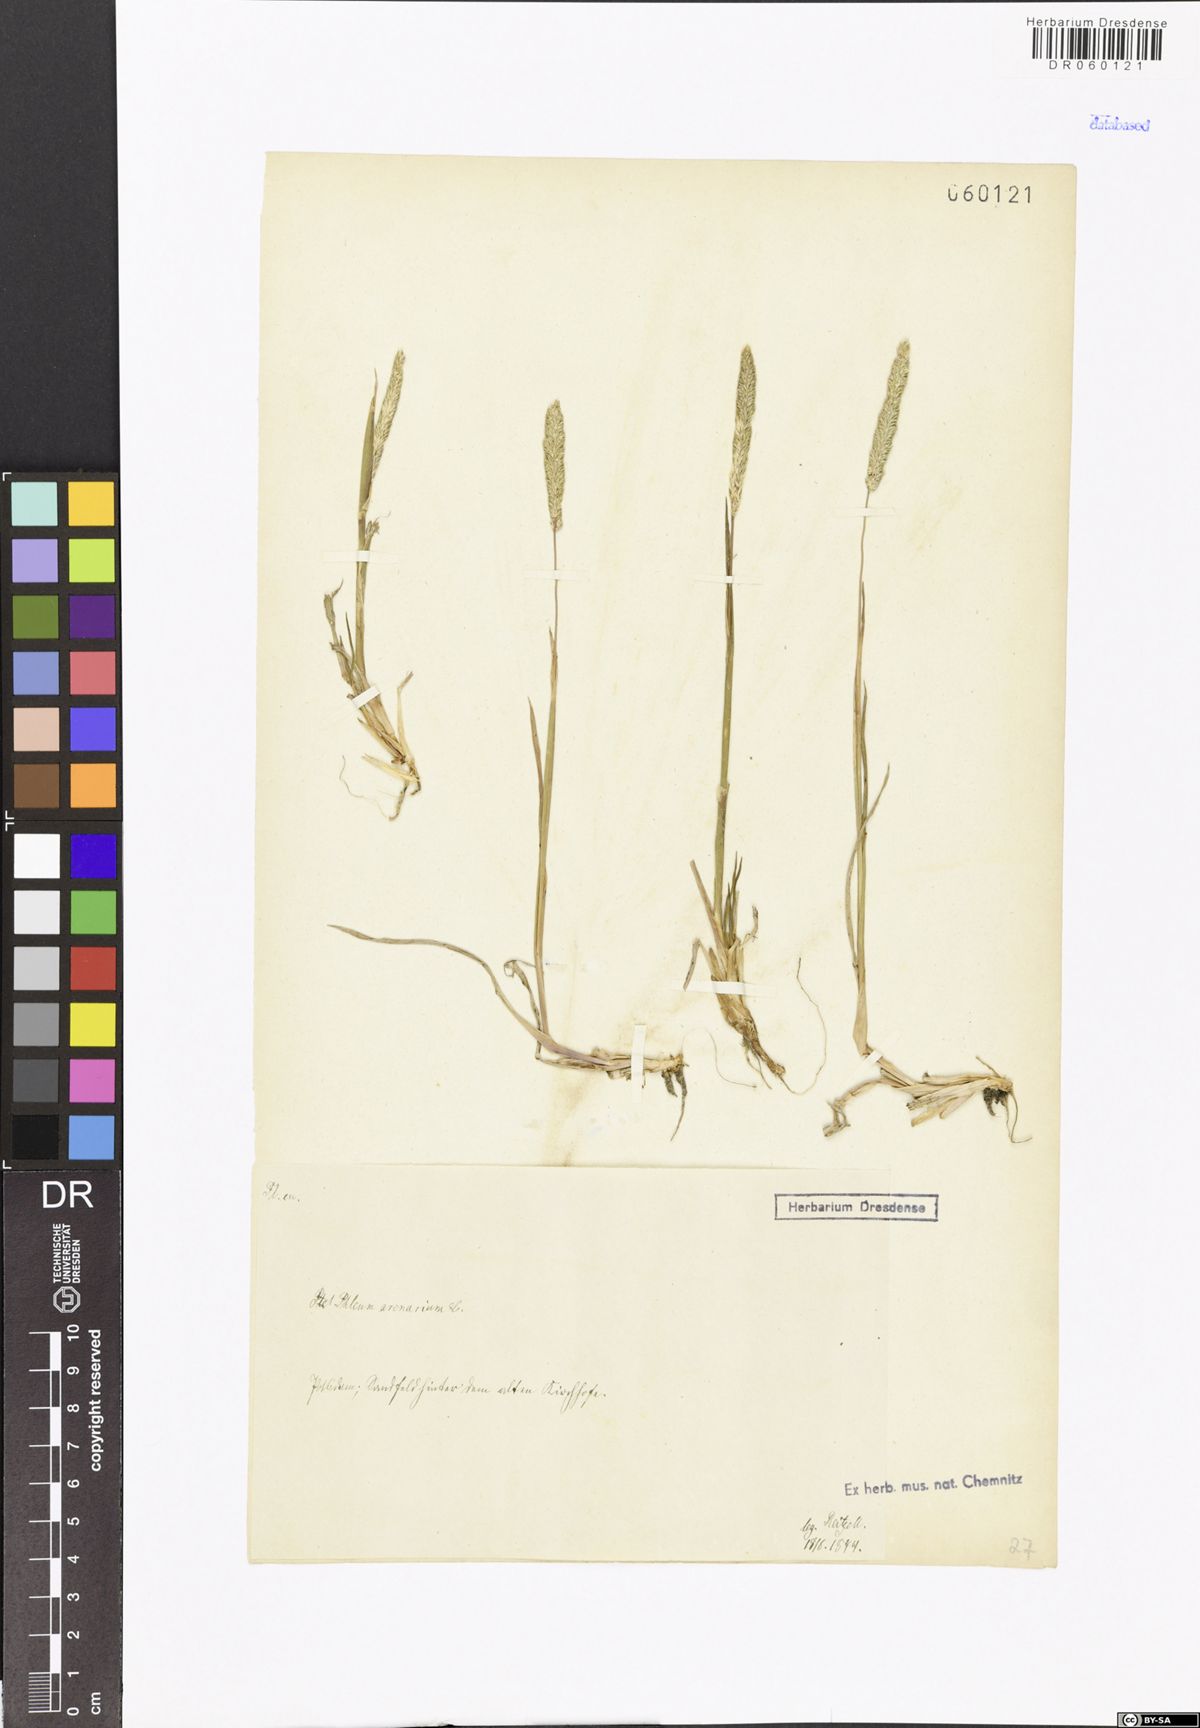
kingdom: Plantae
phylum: Tracheophyta
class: Liliopsida
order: Poales
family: Poaceae
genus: Phleum
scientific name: Phleum arenarium
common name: Sand cat's-tail
